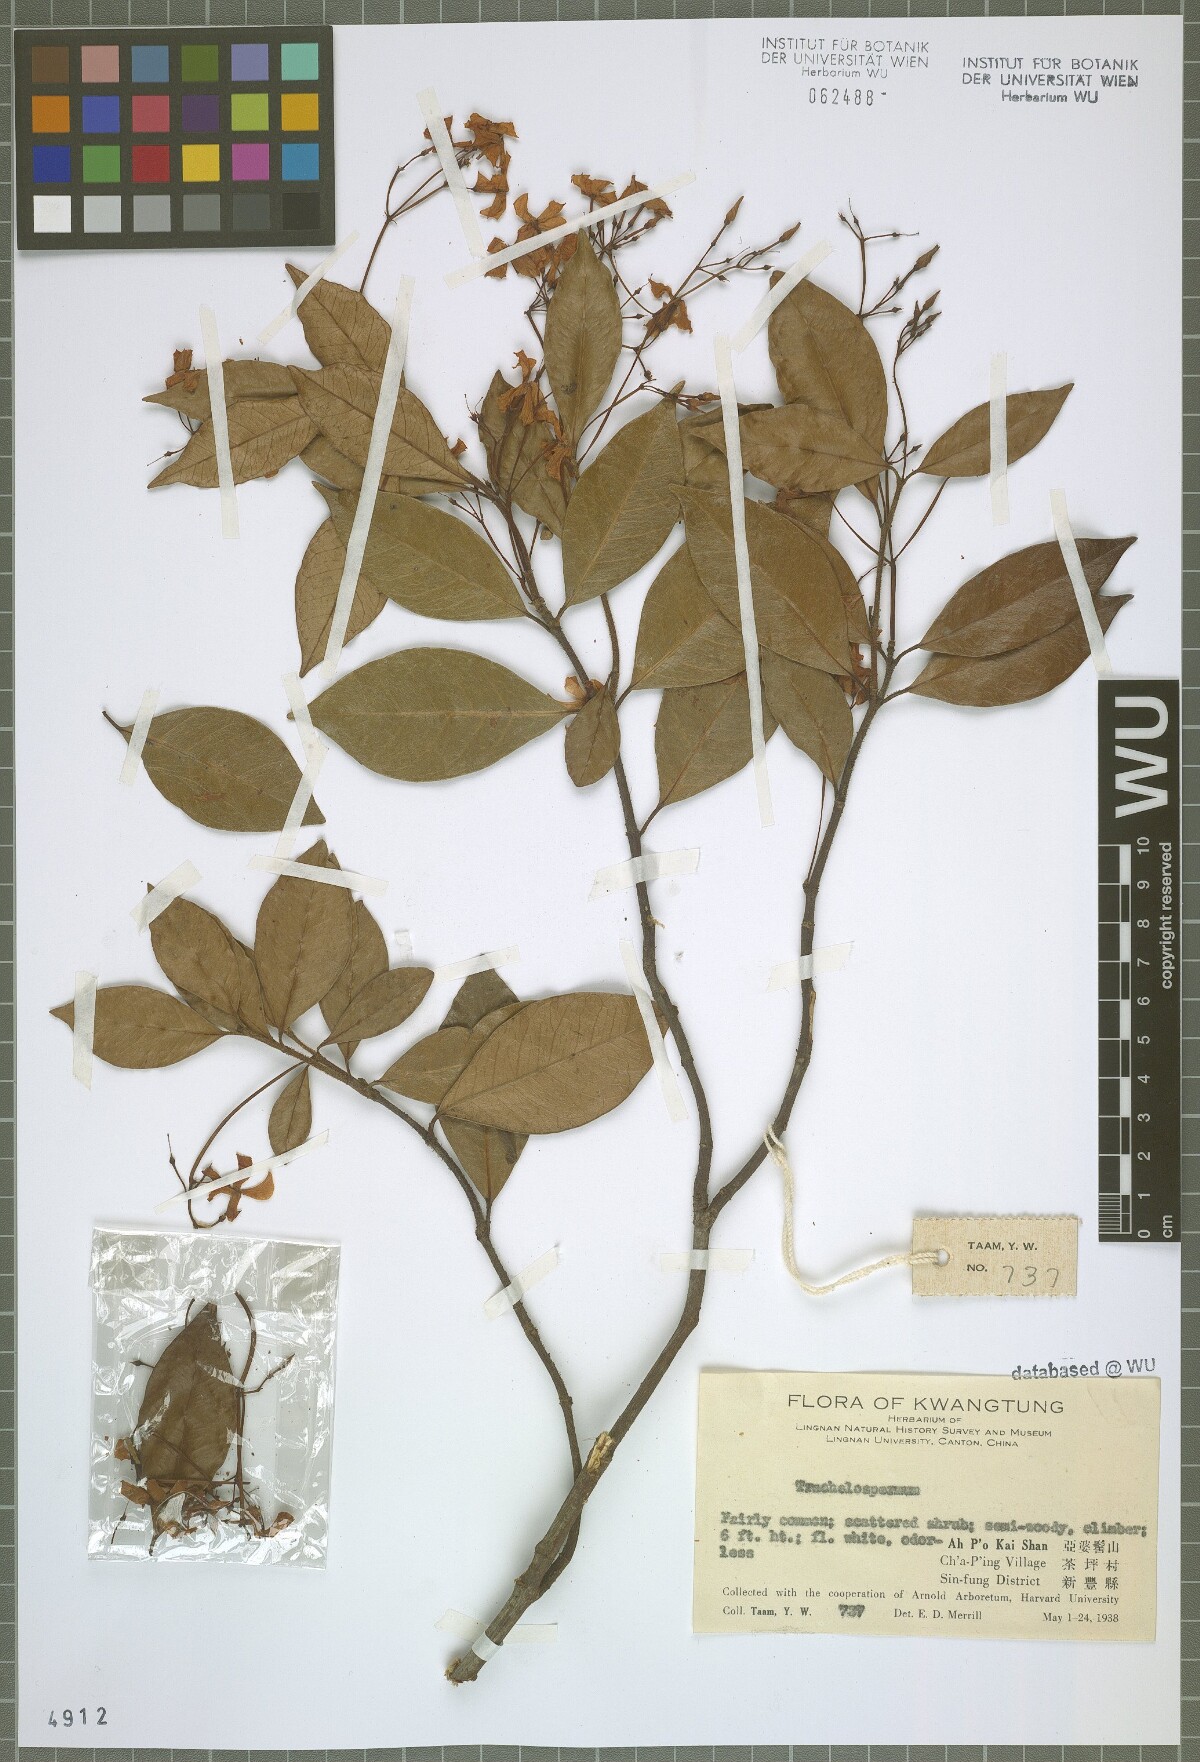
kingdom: Plantae
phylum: Tracheophyta
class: Magnoliopsida
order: Gentianales
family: Apocynaceae
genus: Trachelospermum
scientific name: Trachelospermum
